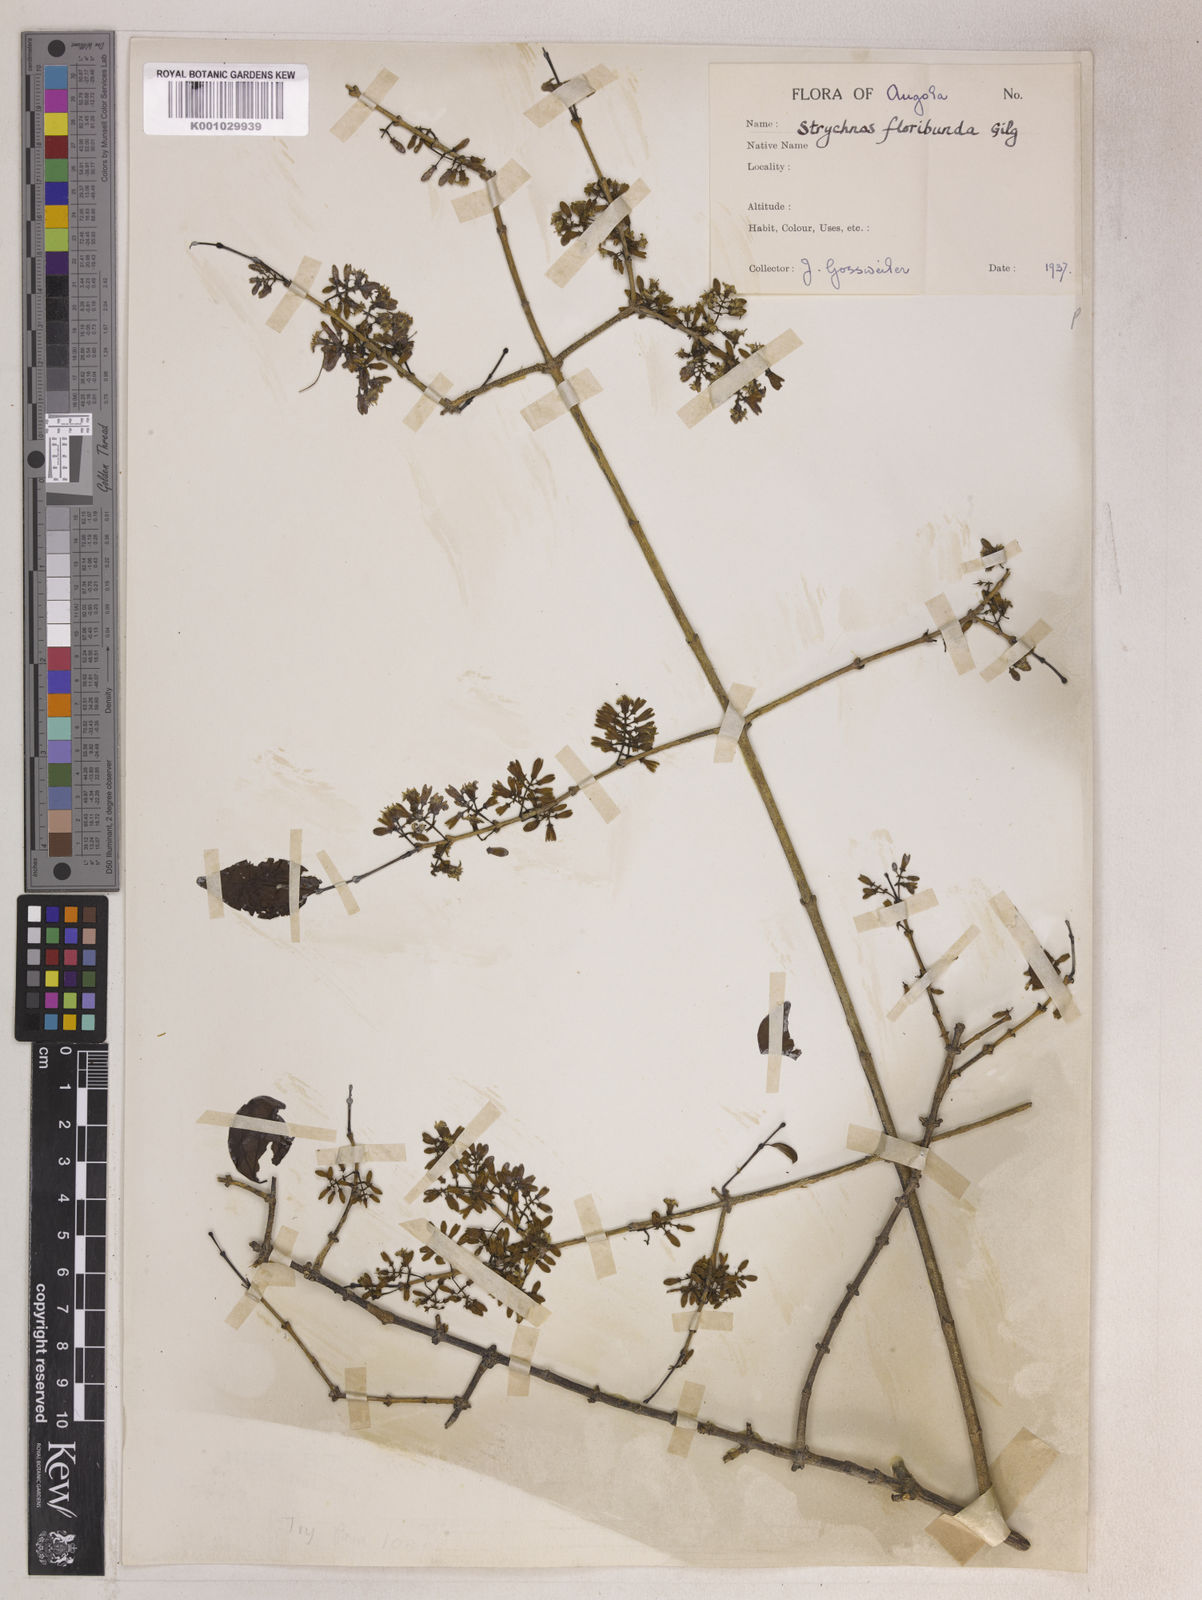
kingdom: Plantae
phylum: Tracheophyta
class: Magnoliopsida
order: Gentianales
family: Loganiaceae
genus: Strychnos
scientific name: Strychnos floribunda
